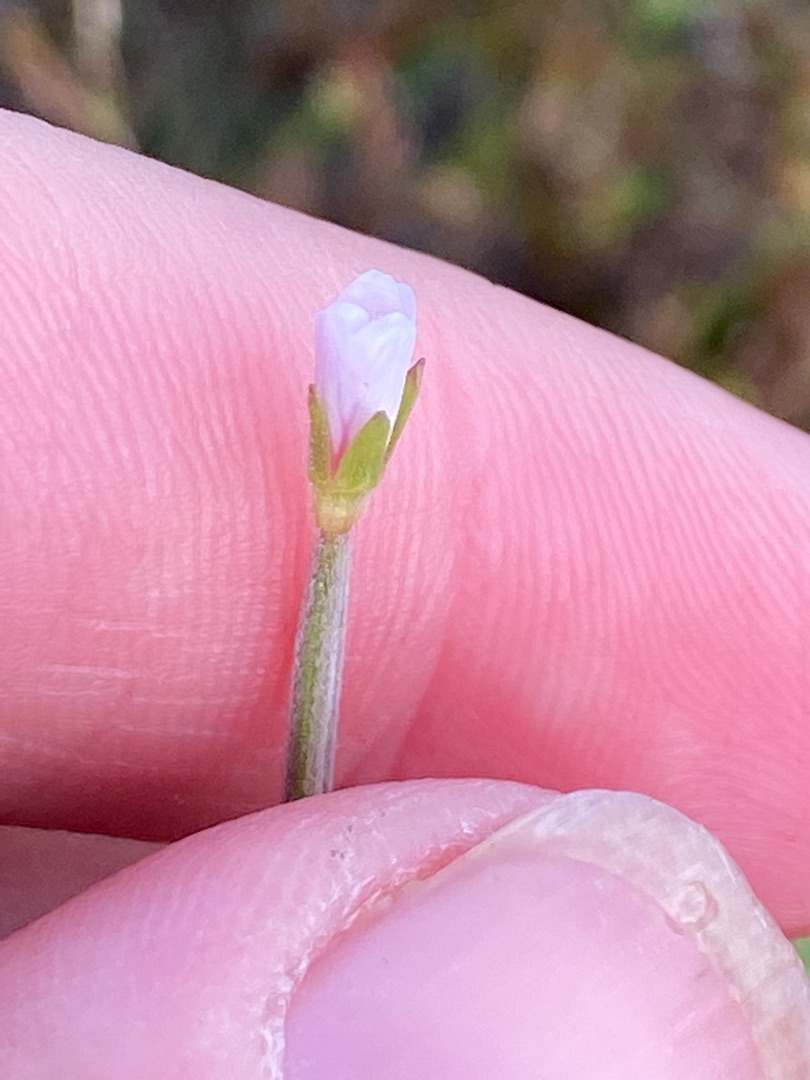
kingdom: Plantae
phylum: Tracheophyta
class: Magnoliopsida
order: Myrtales
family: Onagraceae
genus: Epilobium
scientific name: Epilobium palustre
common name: Kær-dueurt
